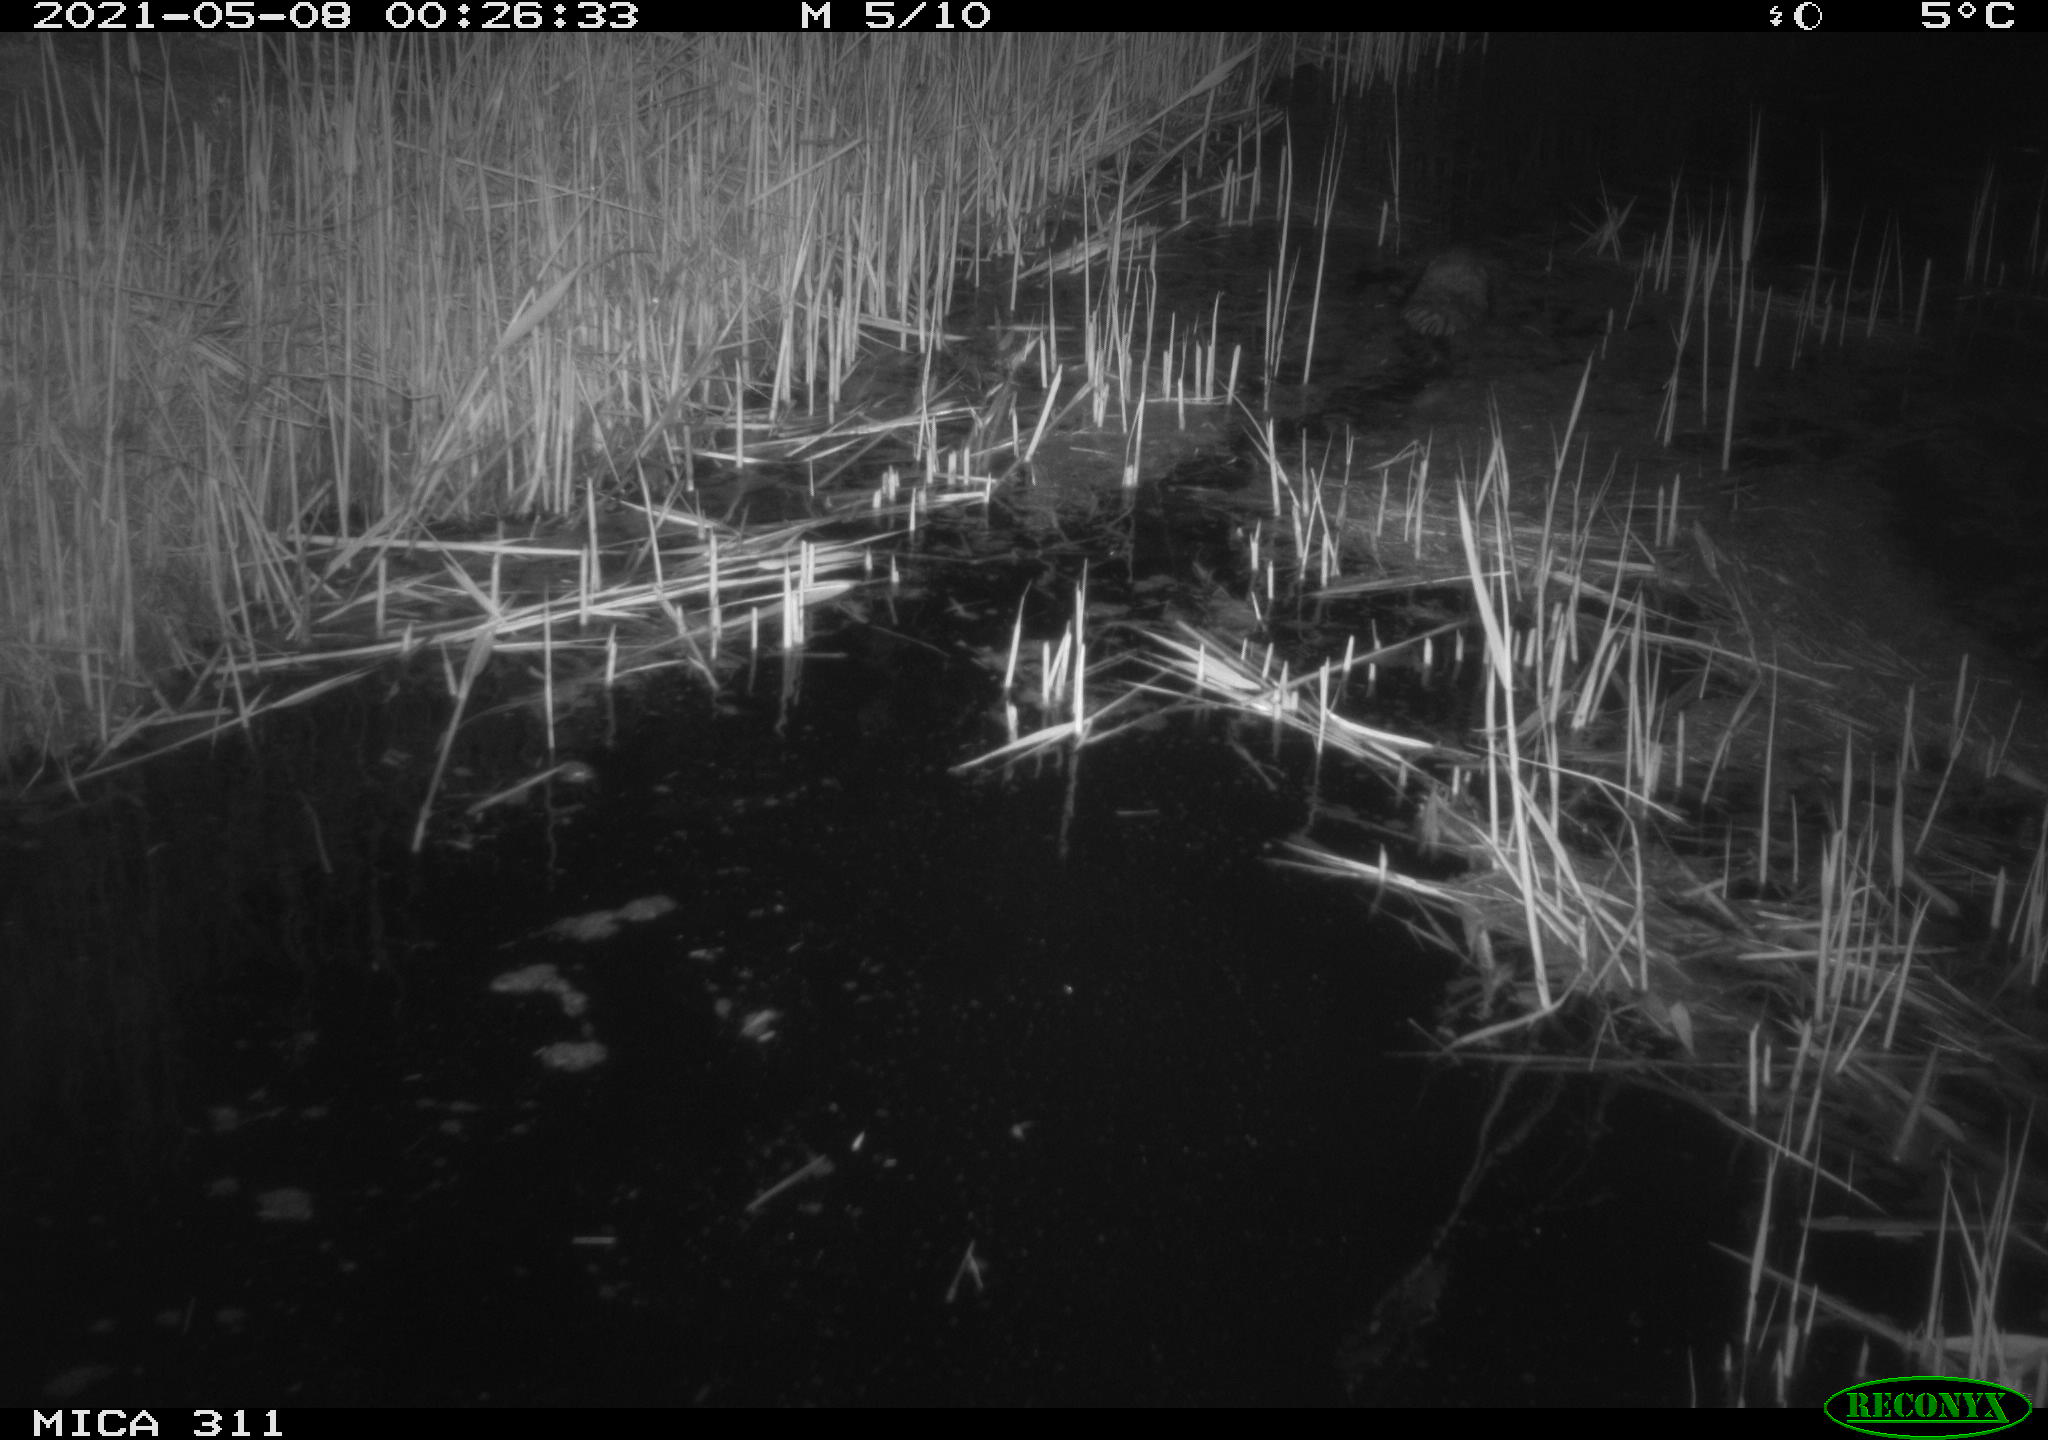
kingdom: Animalia
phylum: Chordata
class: Mammalia
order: Rodentia
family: Cricetidae
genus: Ondatra
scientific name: Ondatra zibethicus
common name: Muskrat
